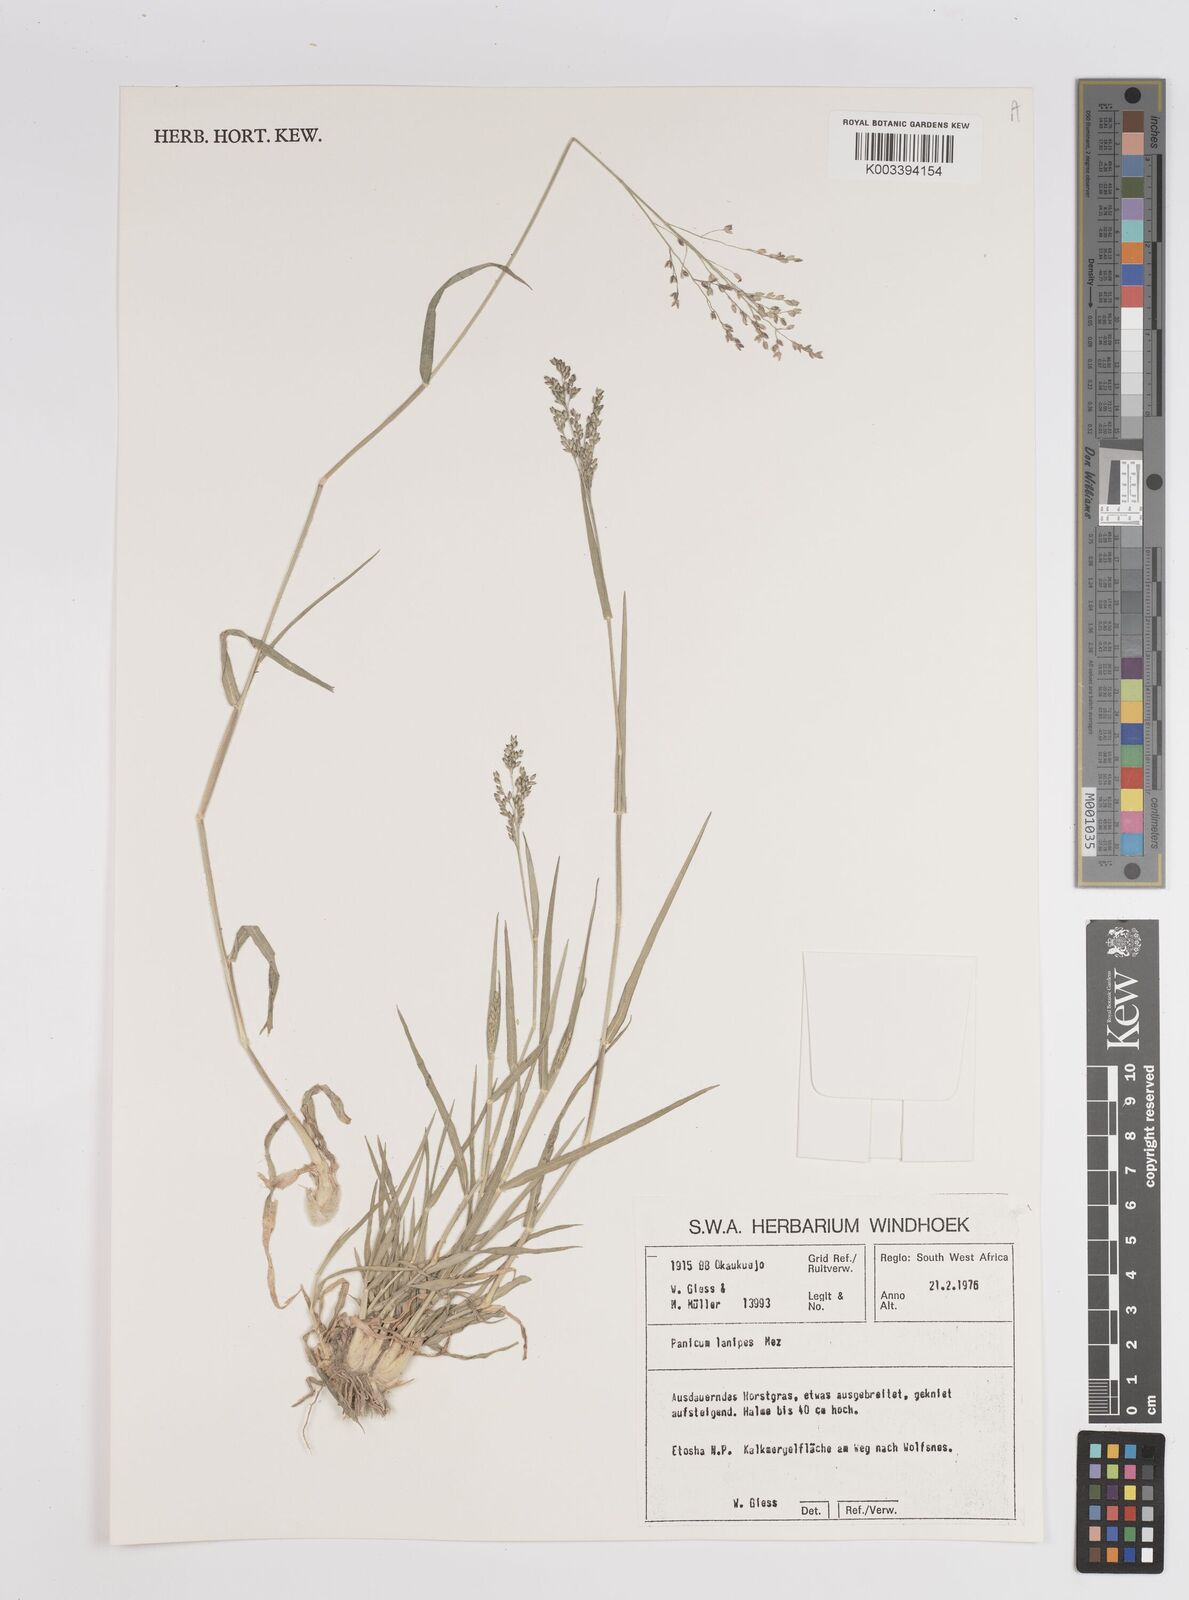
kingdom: Plantae
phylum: Tracheophyta
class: Liliopsida
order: Poales
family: Poaceae
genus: Panicum
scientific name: Panicum lanipes
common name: Wolvoet panicum
